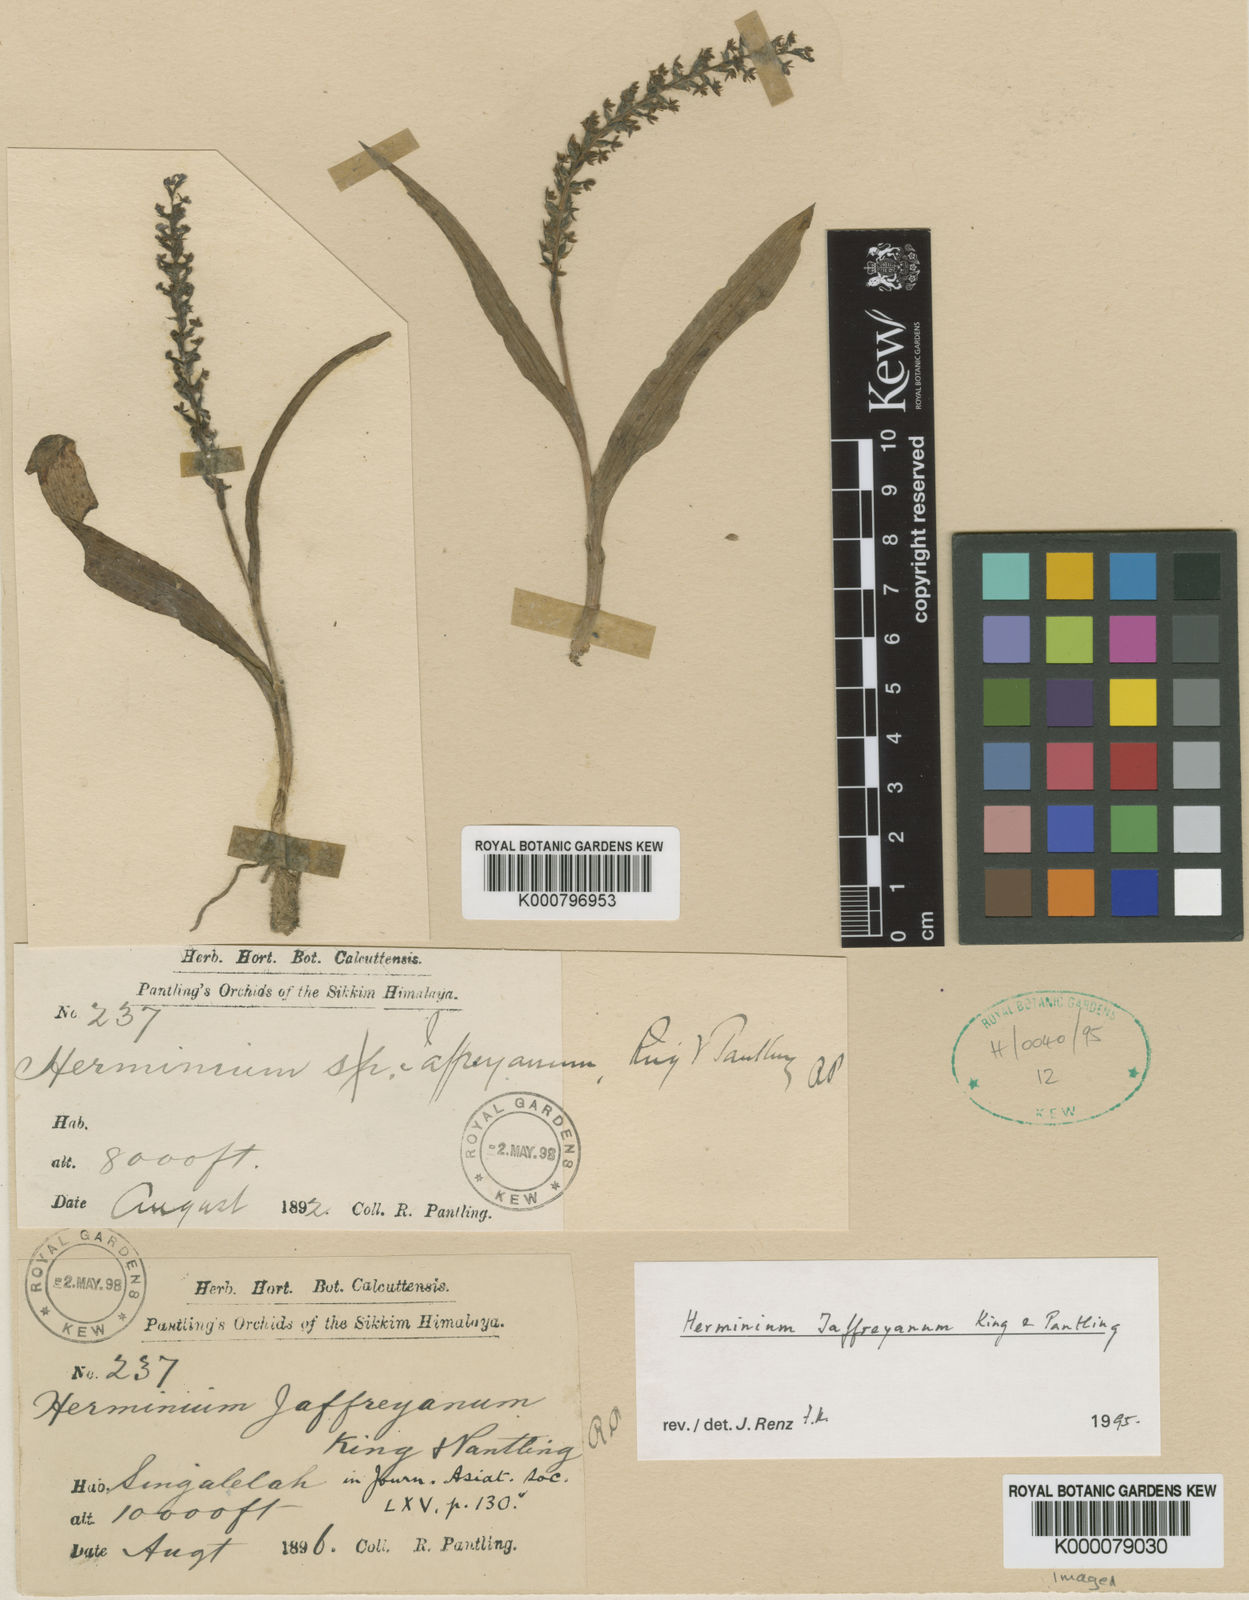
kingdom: Plantae
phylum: Tracheophyta
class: Liliopsida
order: Asparagales
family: Orchidaceae
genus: Herminium
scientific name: Herminium jaffreyanum
